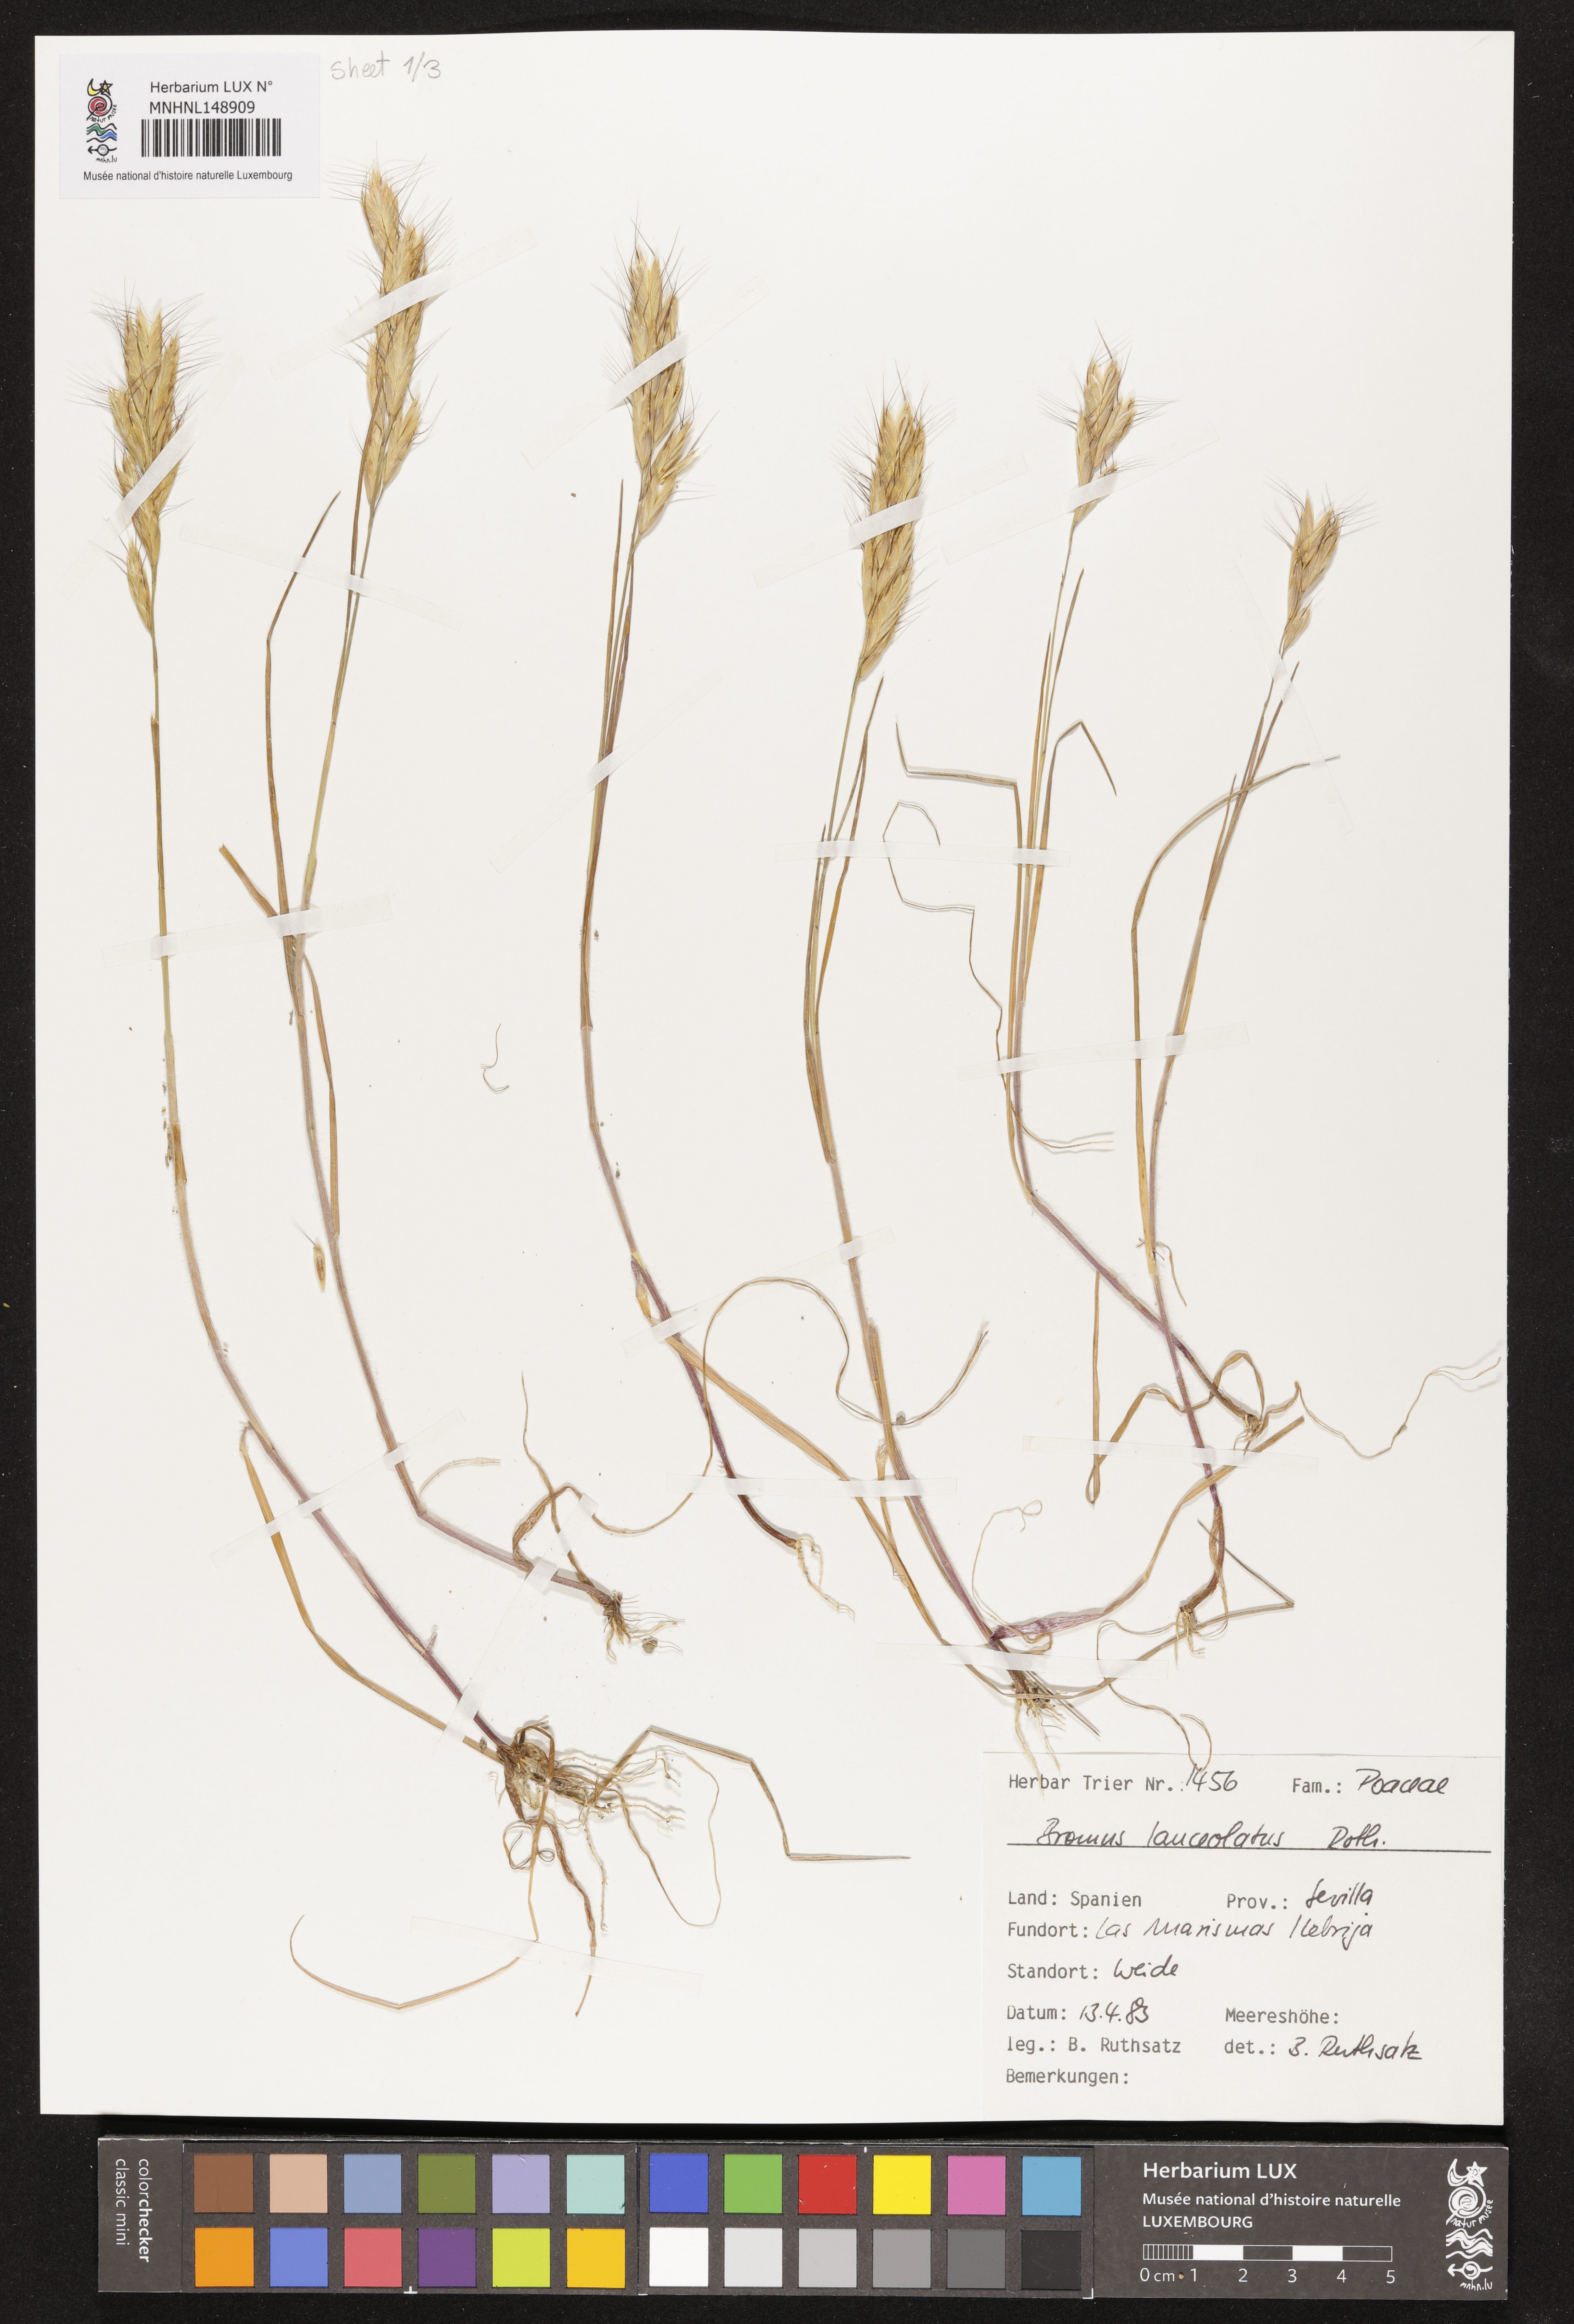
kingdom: Plantae
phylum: Tracheophyta
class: Liliopsida
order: Poales
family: Poaceae
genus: Bromus
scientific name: Bromus lanceolatus
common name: Mediterranean brome
